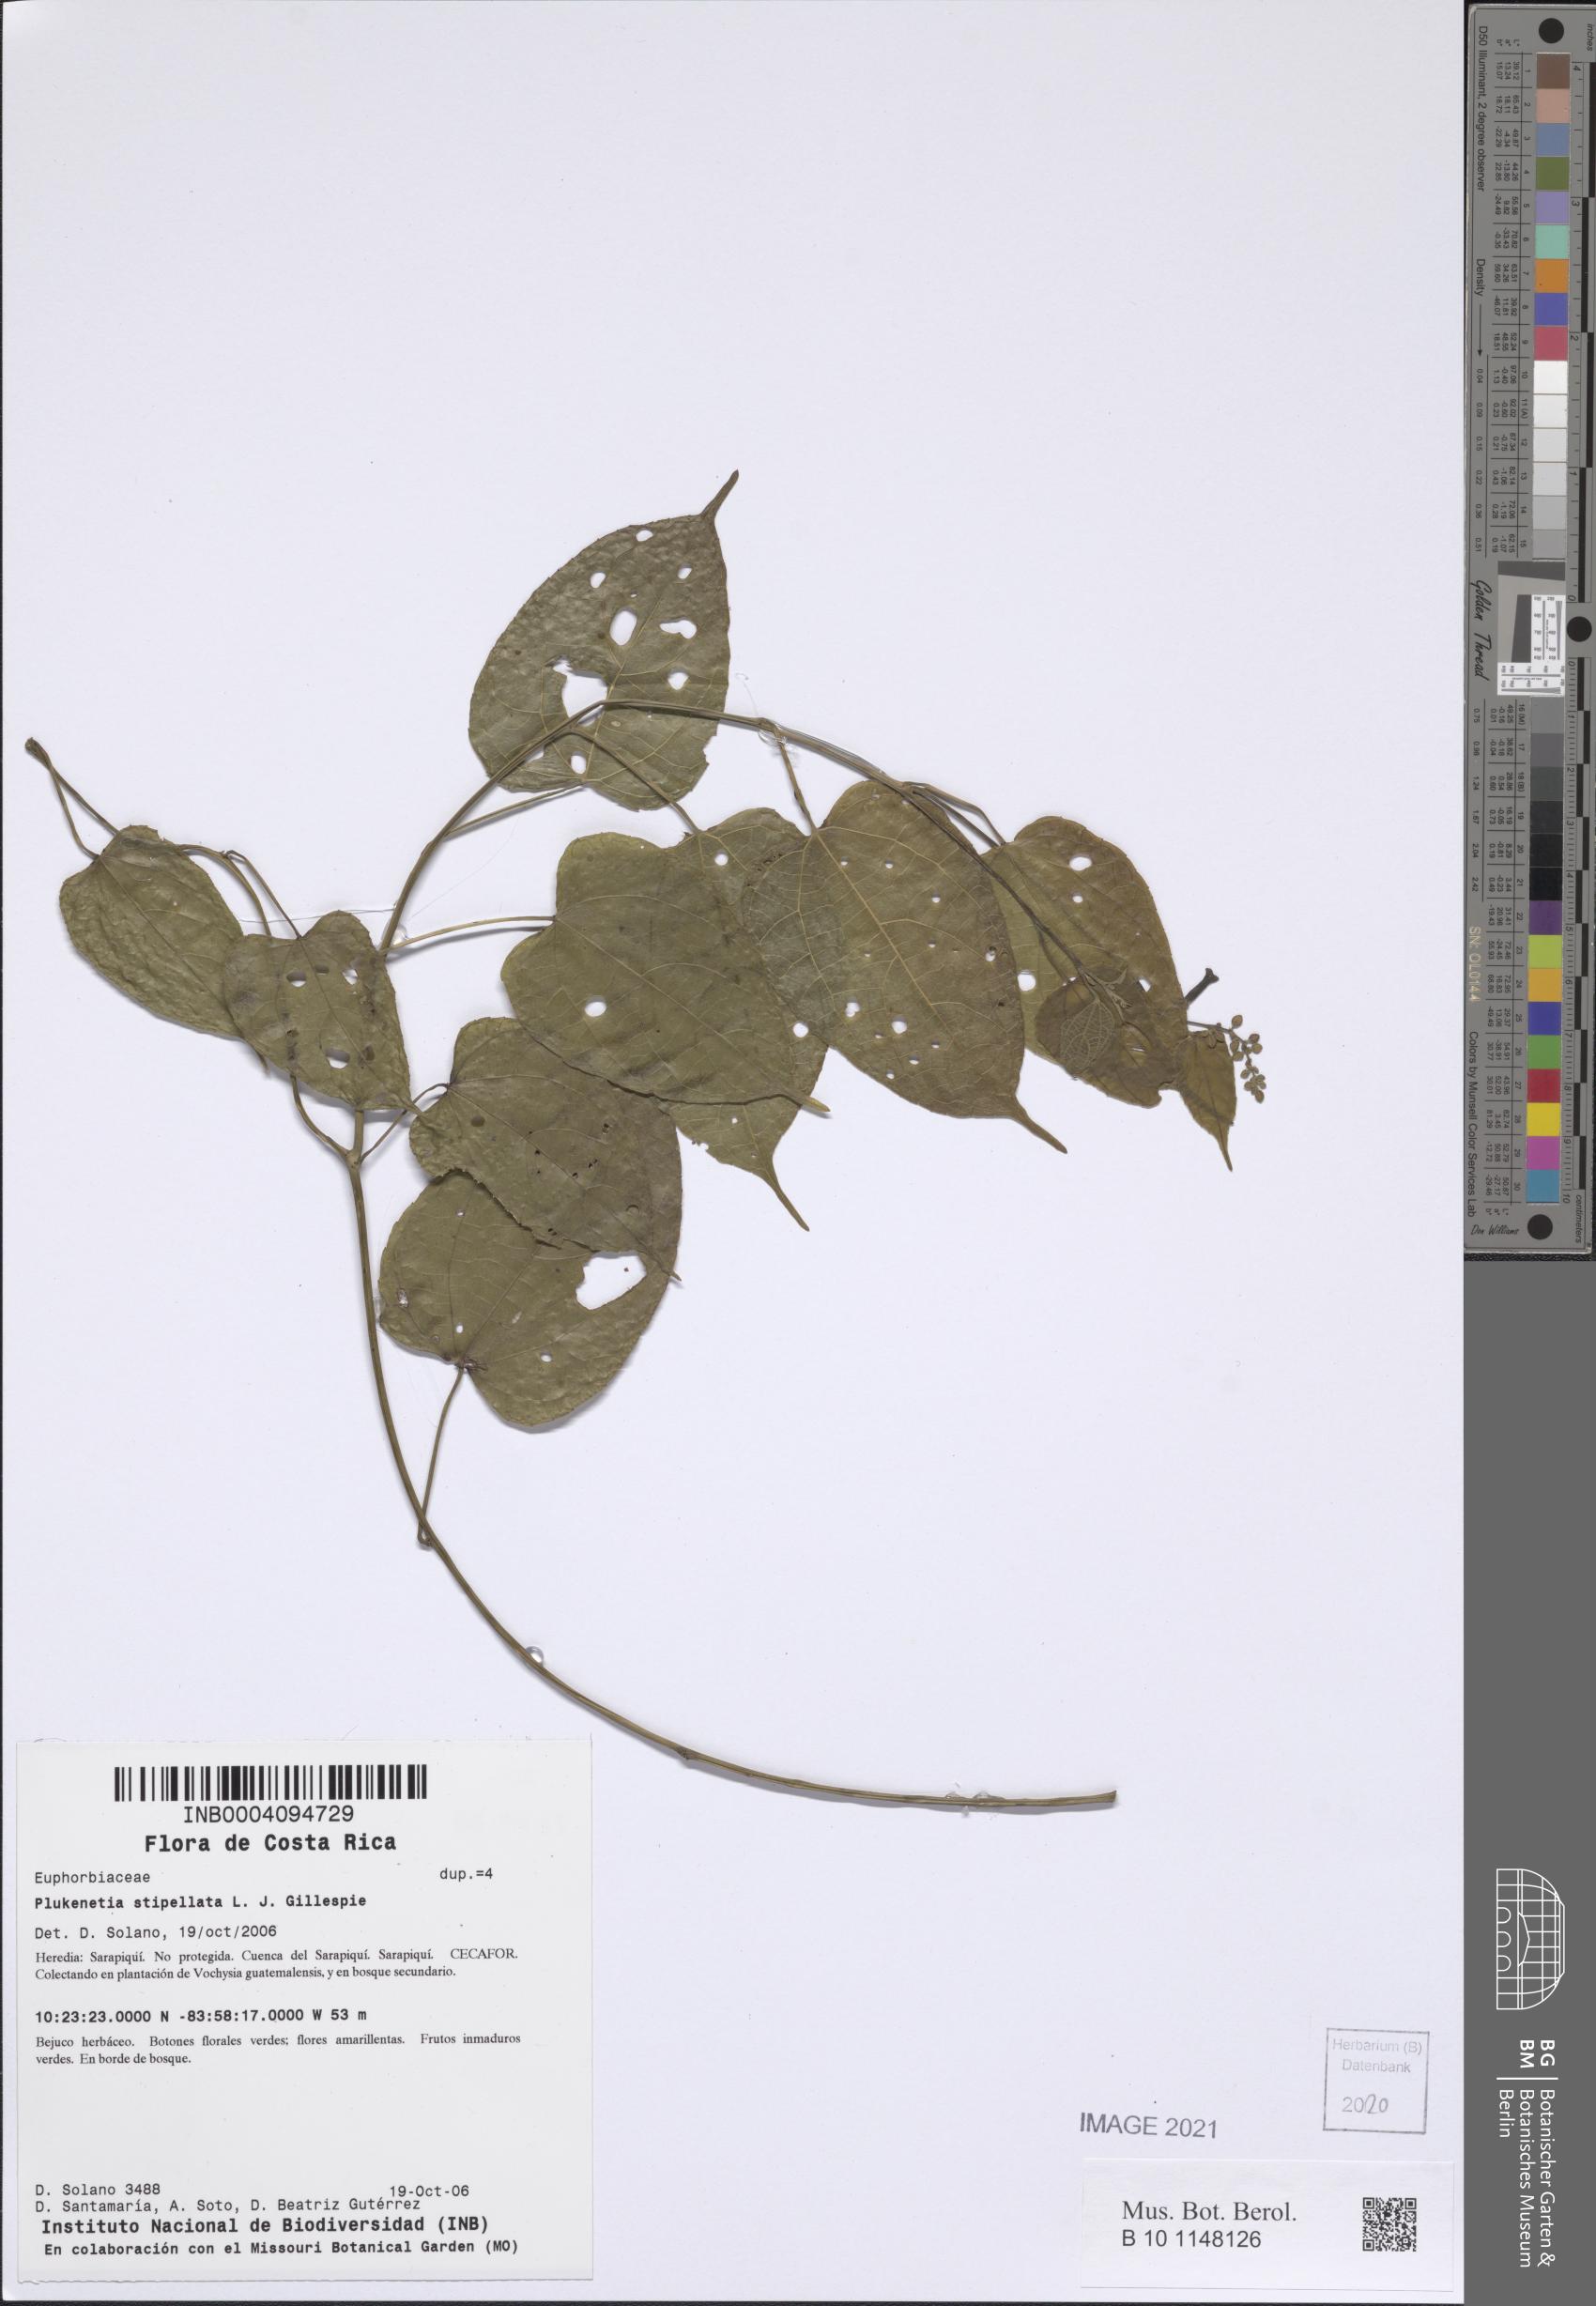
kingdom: Plantae
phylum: Tracheophyta
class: Magnoliopsida
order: Malpighiales
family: Euphorbiaceae
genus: Plukenetia
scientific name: Plukenetia stipellata
